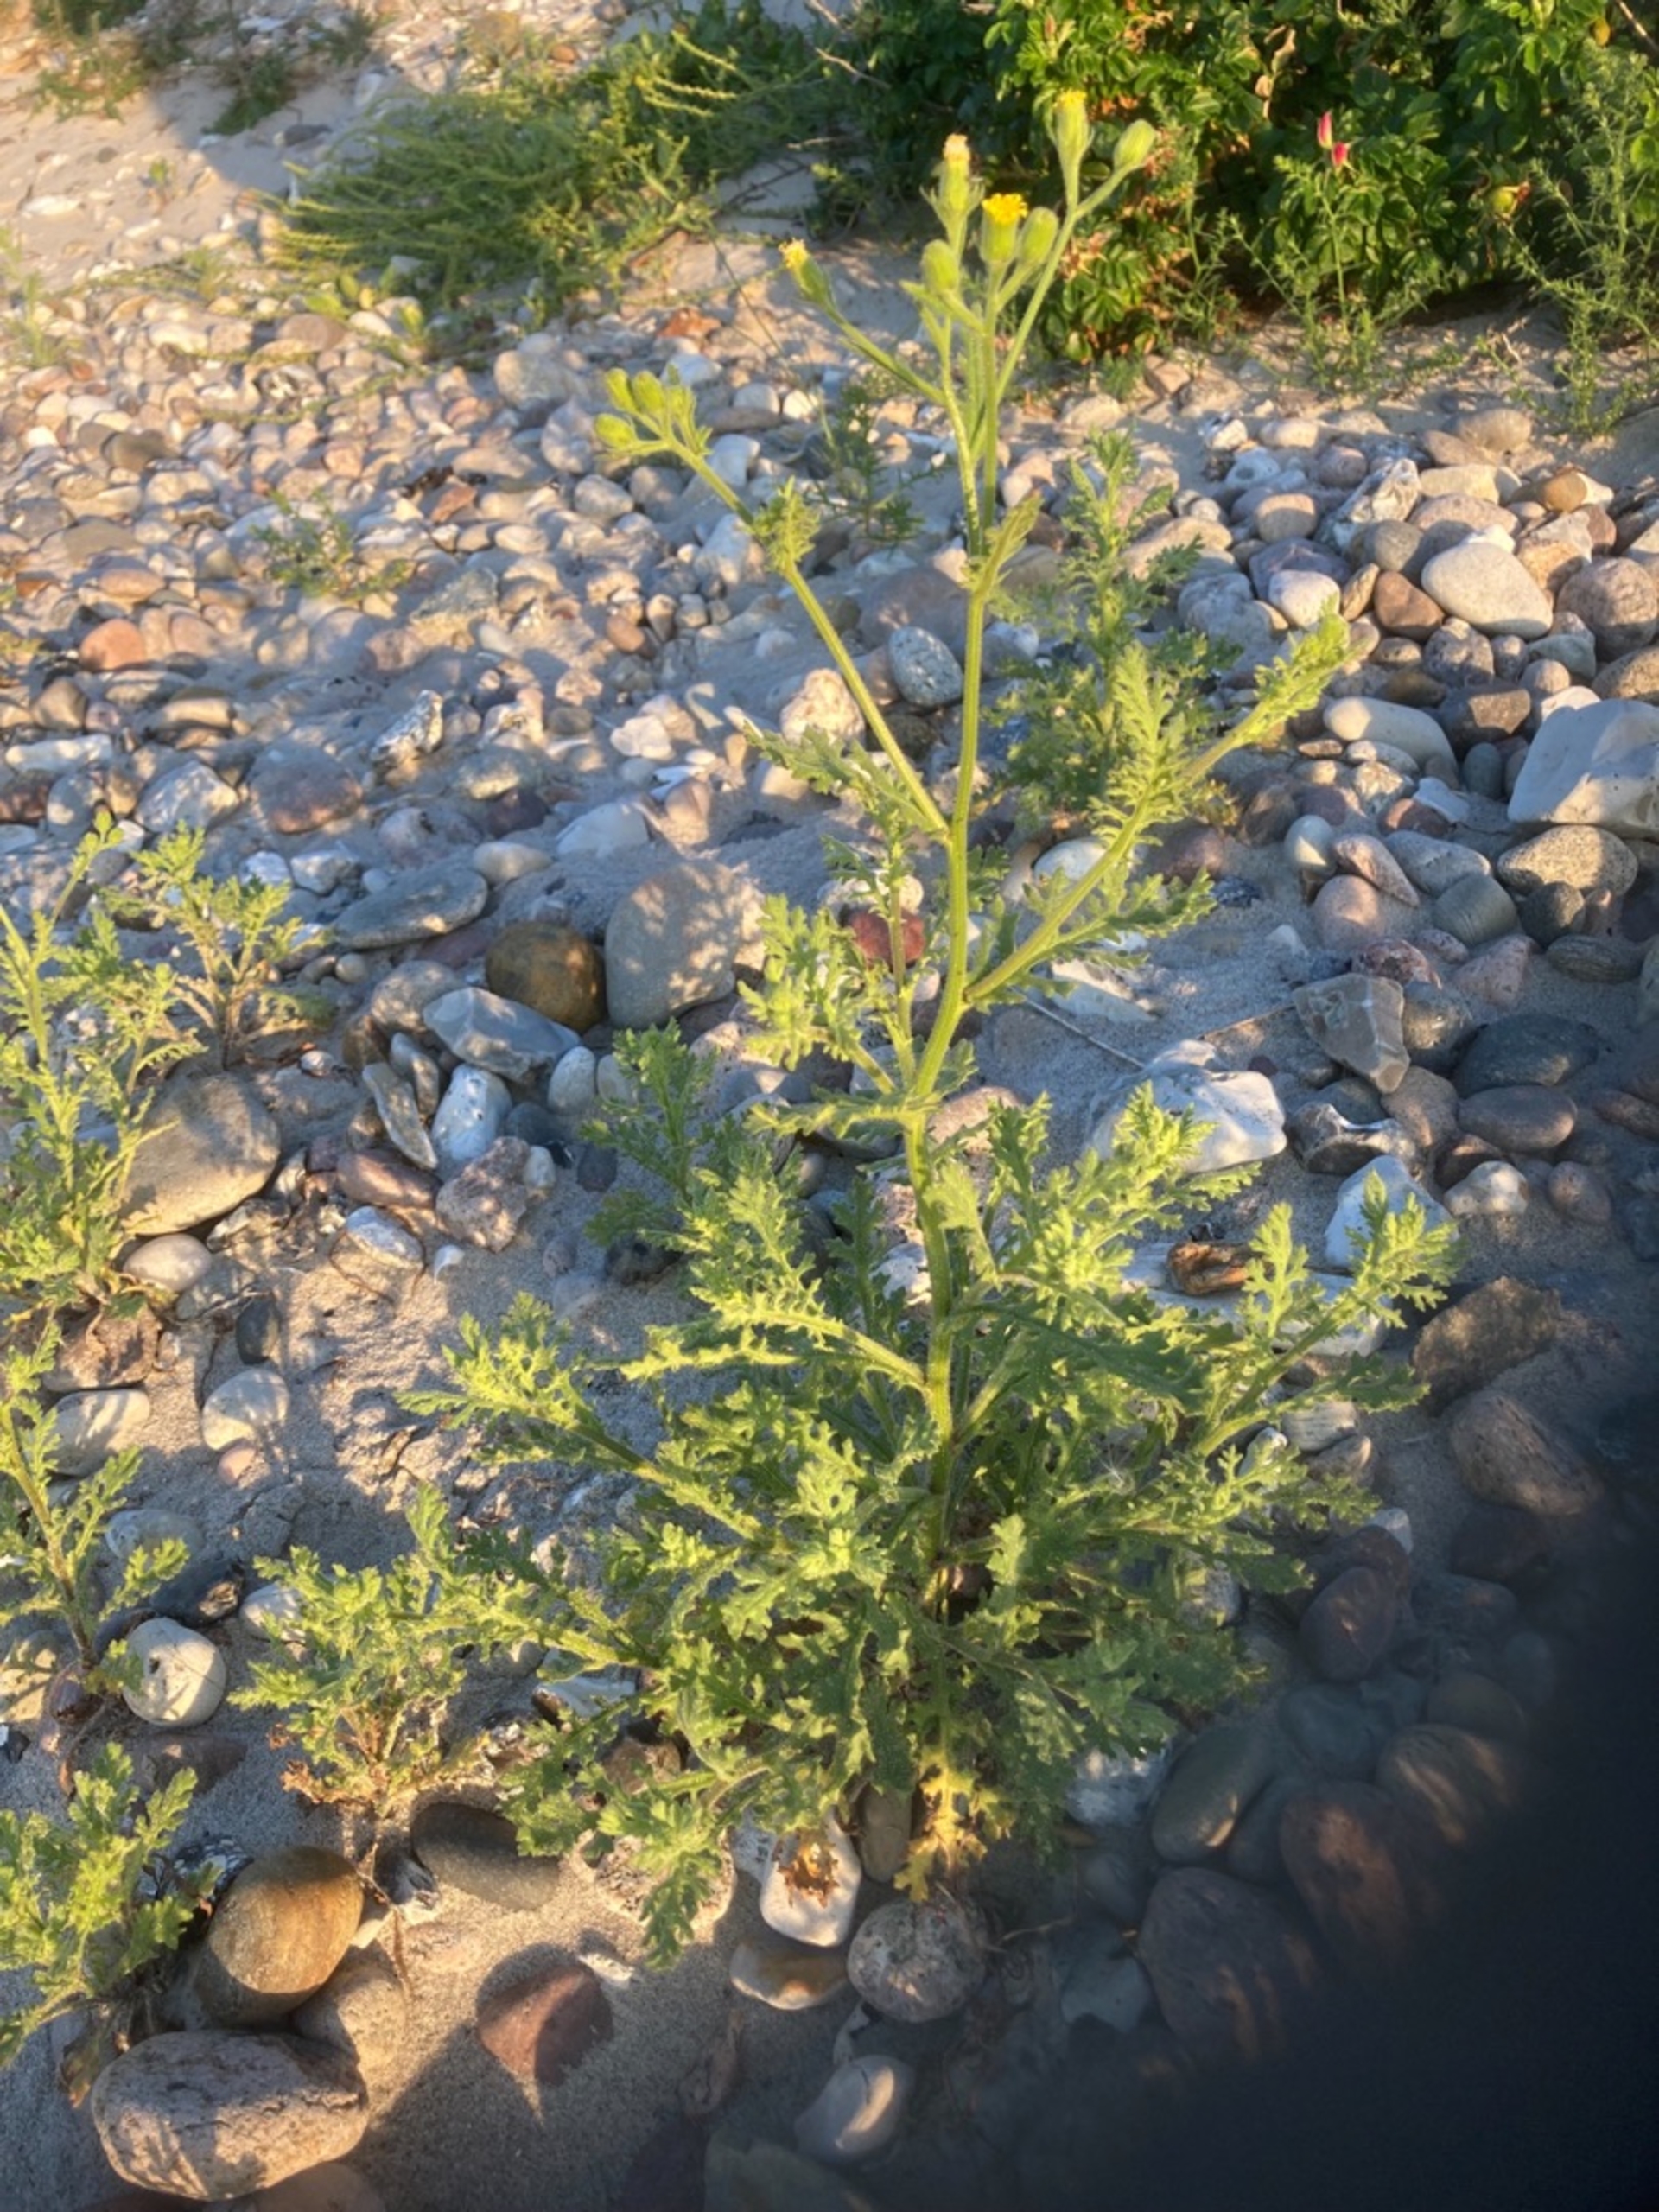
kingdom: Plantae
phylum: Tracheophyta
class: Magnoliopsida
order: Asterales
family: Asteraceae
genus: Senecio
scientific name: Senecio viscosus
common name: Klæbrig brandbæger
